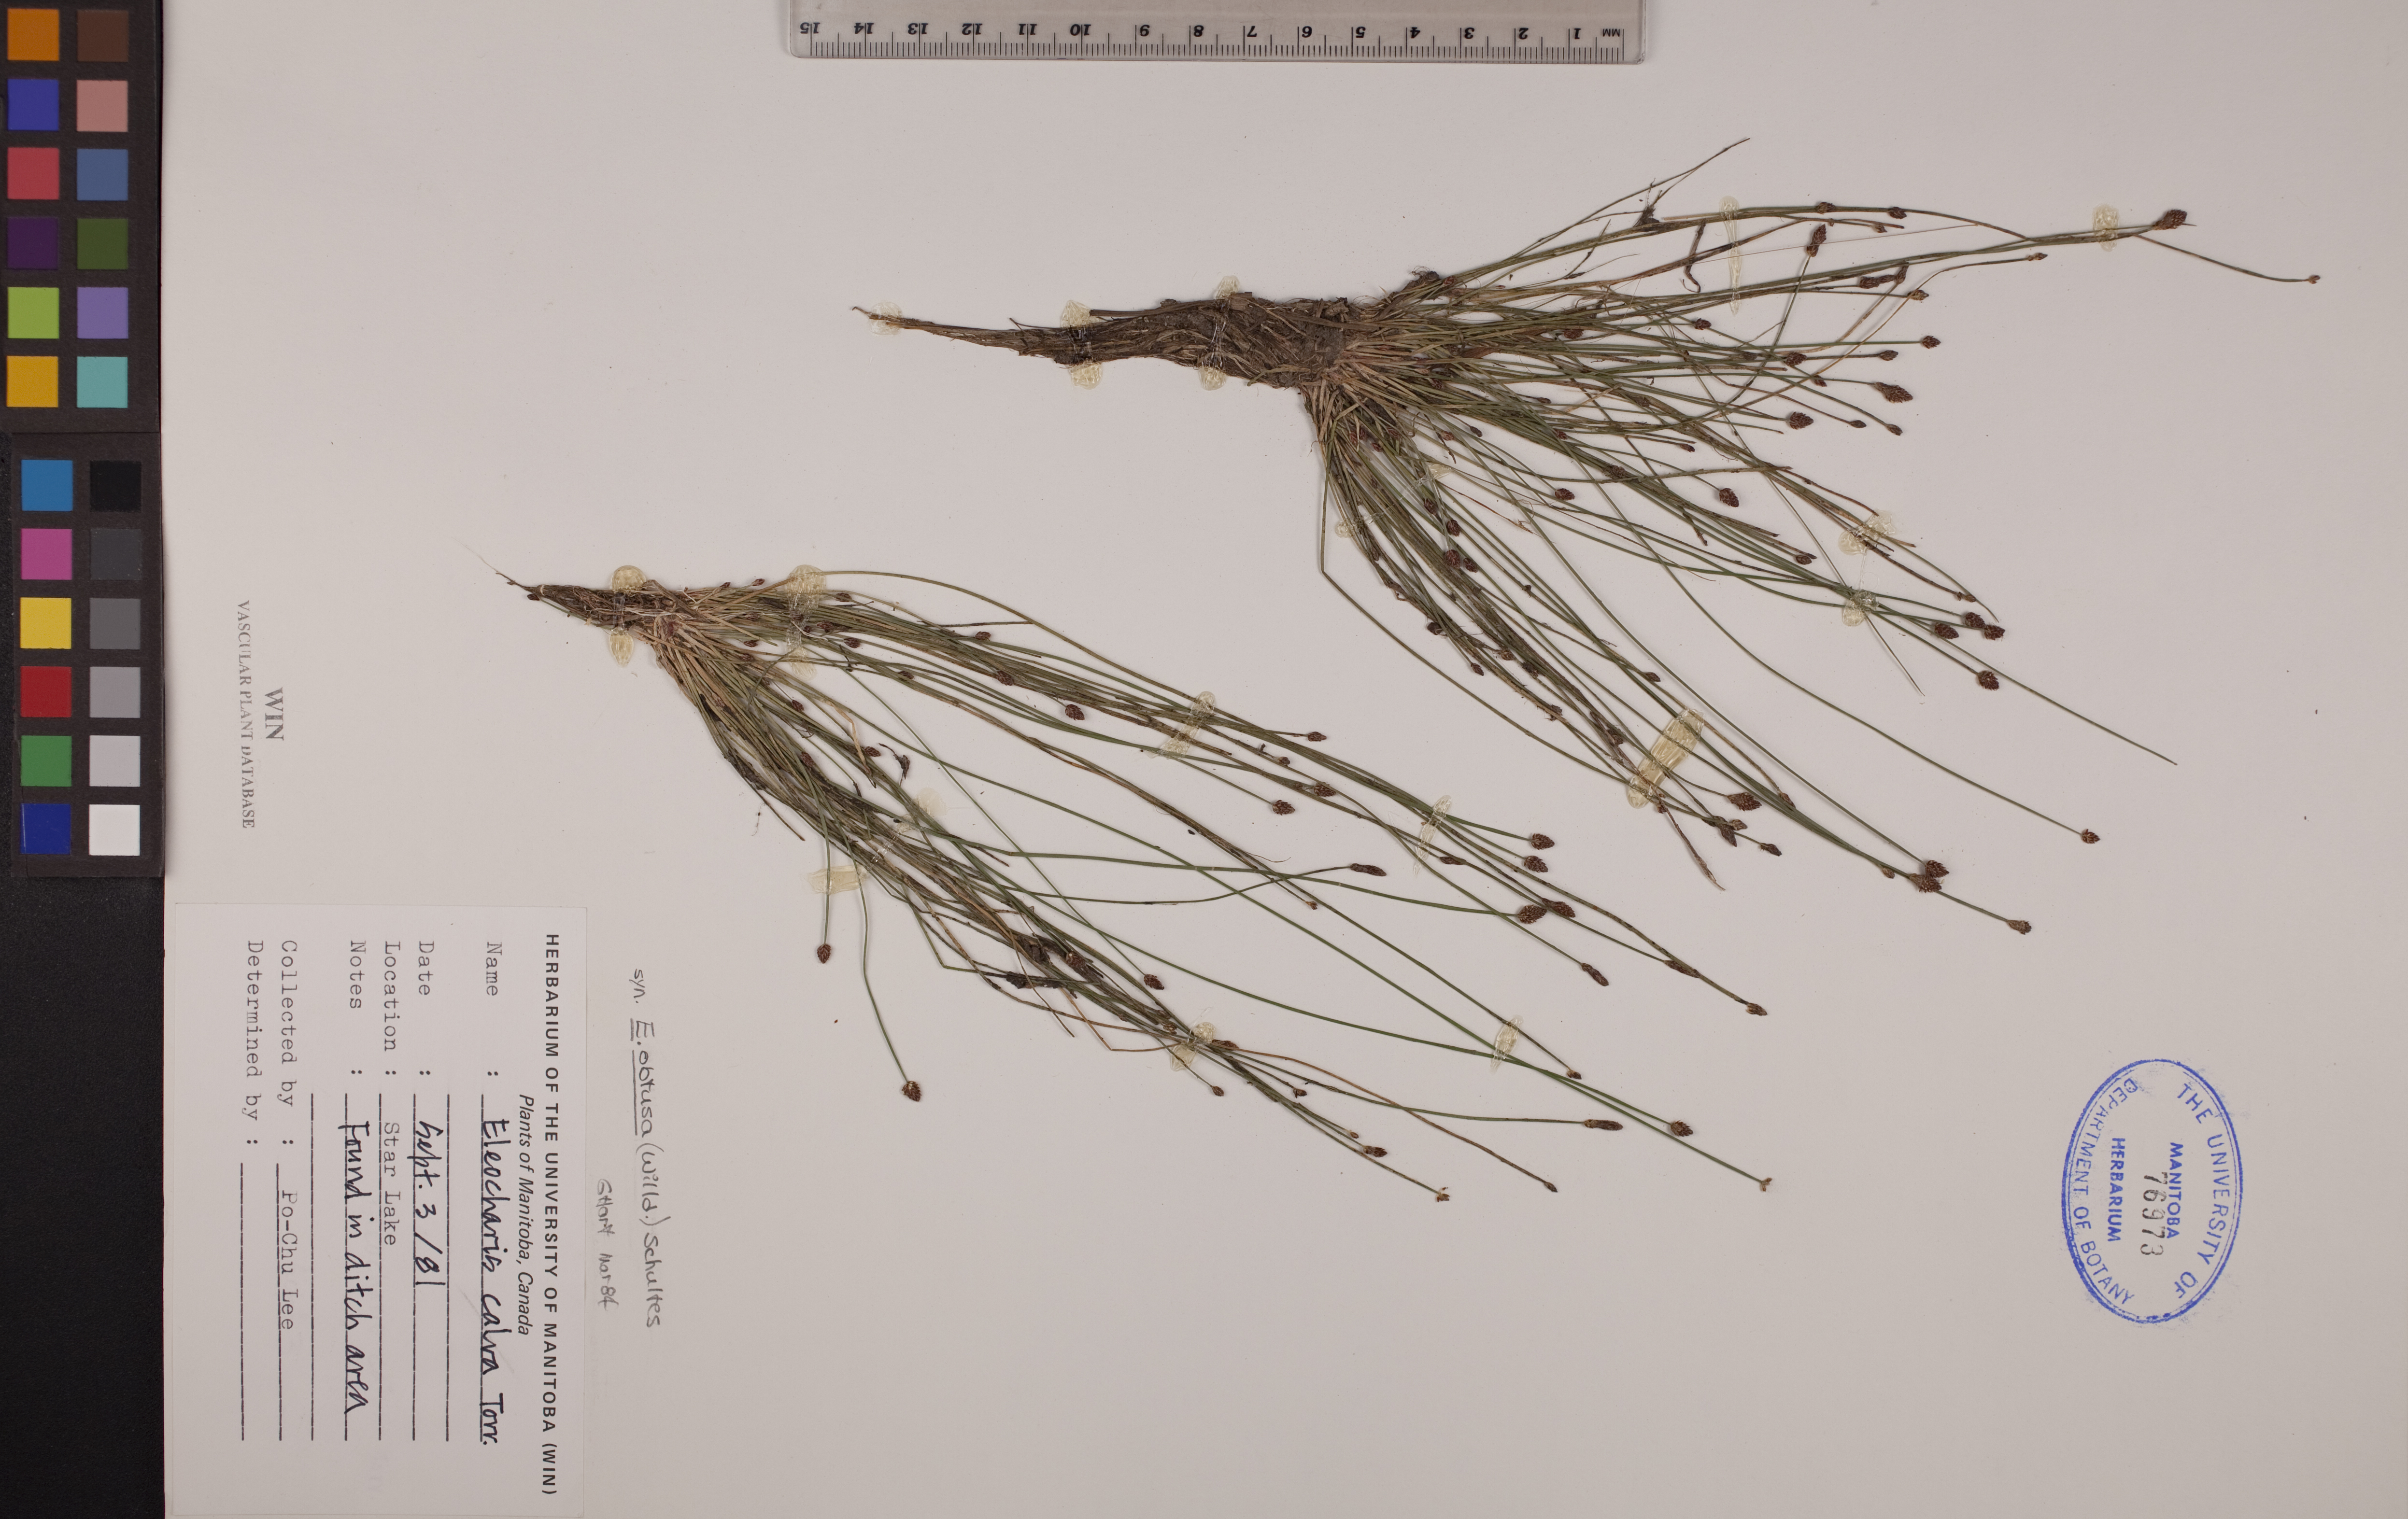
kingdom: Plantae
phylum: Tracheophyta
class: Liliopsida
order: Poales
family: Cyperaceae
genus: Eleocharis
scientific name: Eleocharis obtusa
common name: Blunt spikerush
